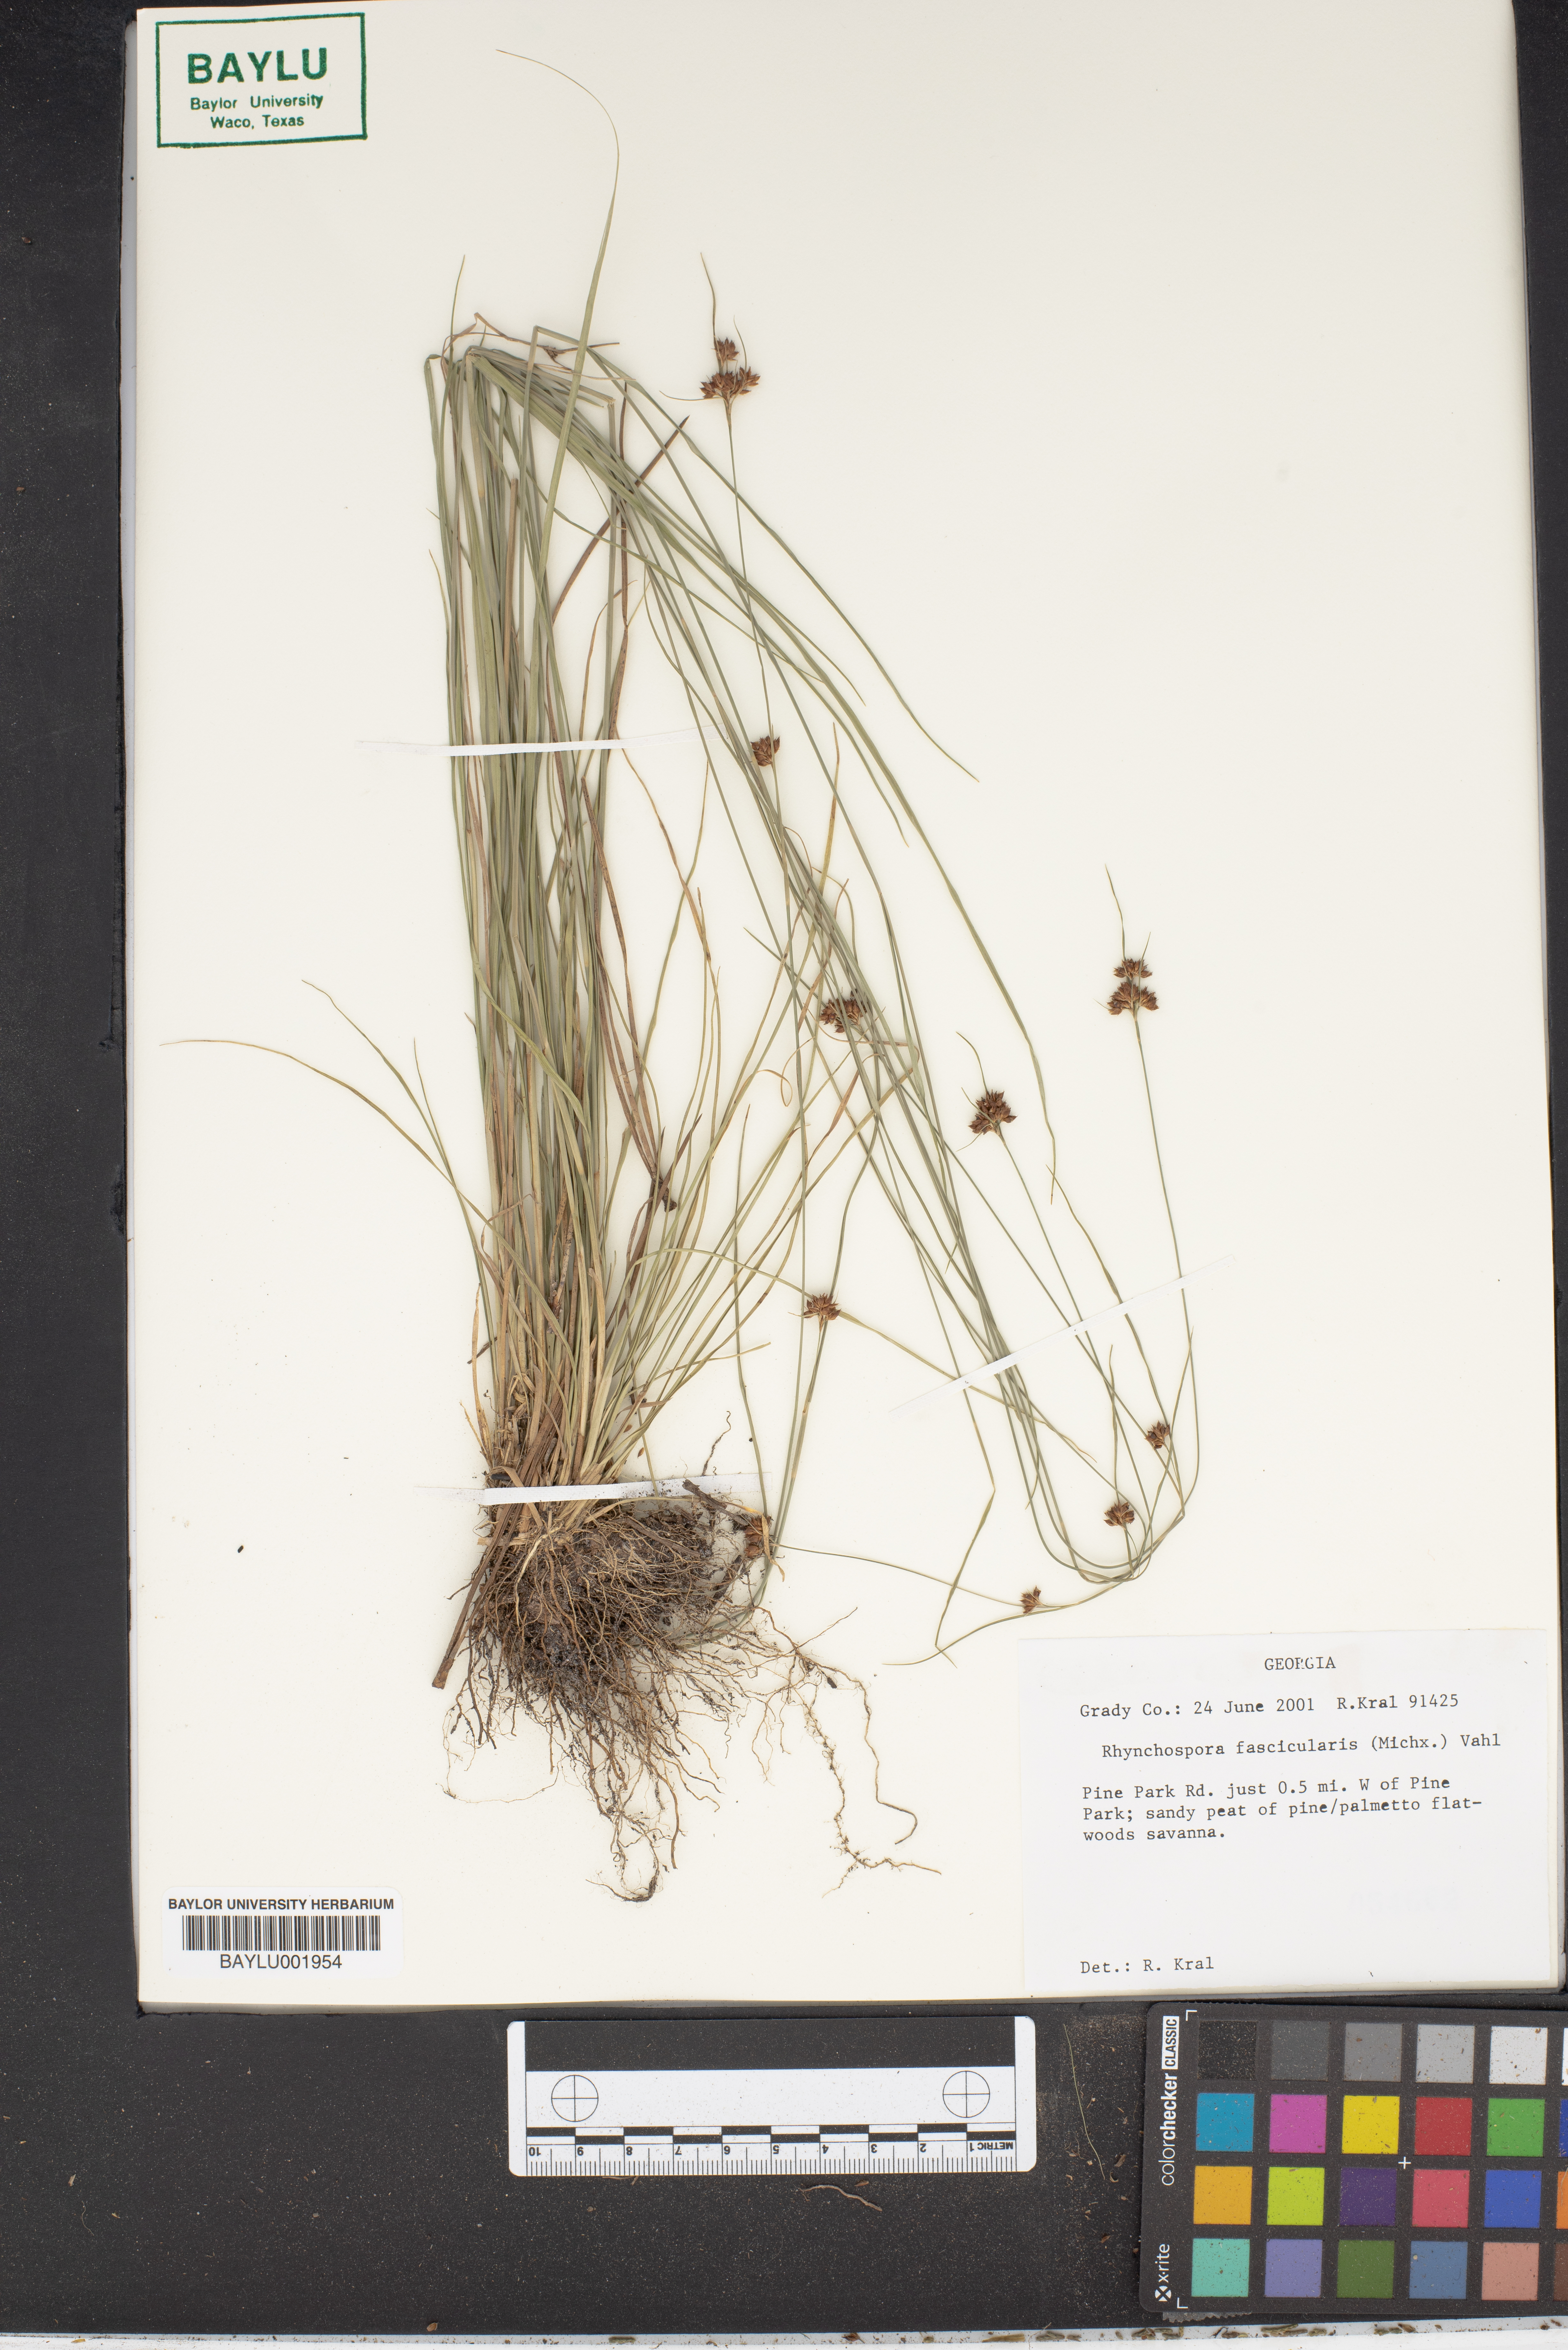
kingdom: Plantae
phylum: Tracheophyta
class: Liliopsida
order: Poales
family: Cyperaceae
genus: Rhynchospora
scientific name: Rhynchospora fascicularis
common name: Fascicled beak sedge
